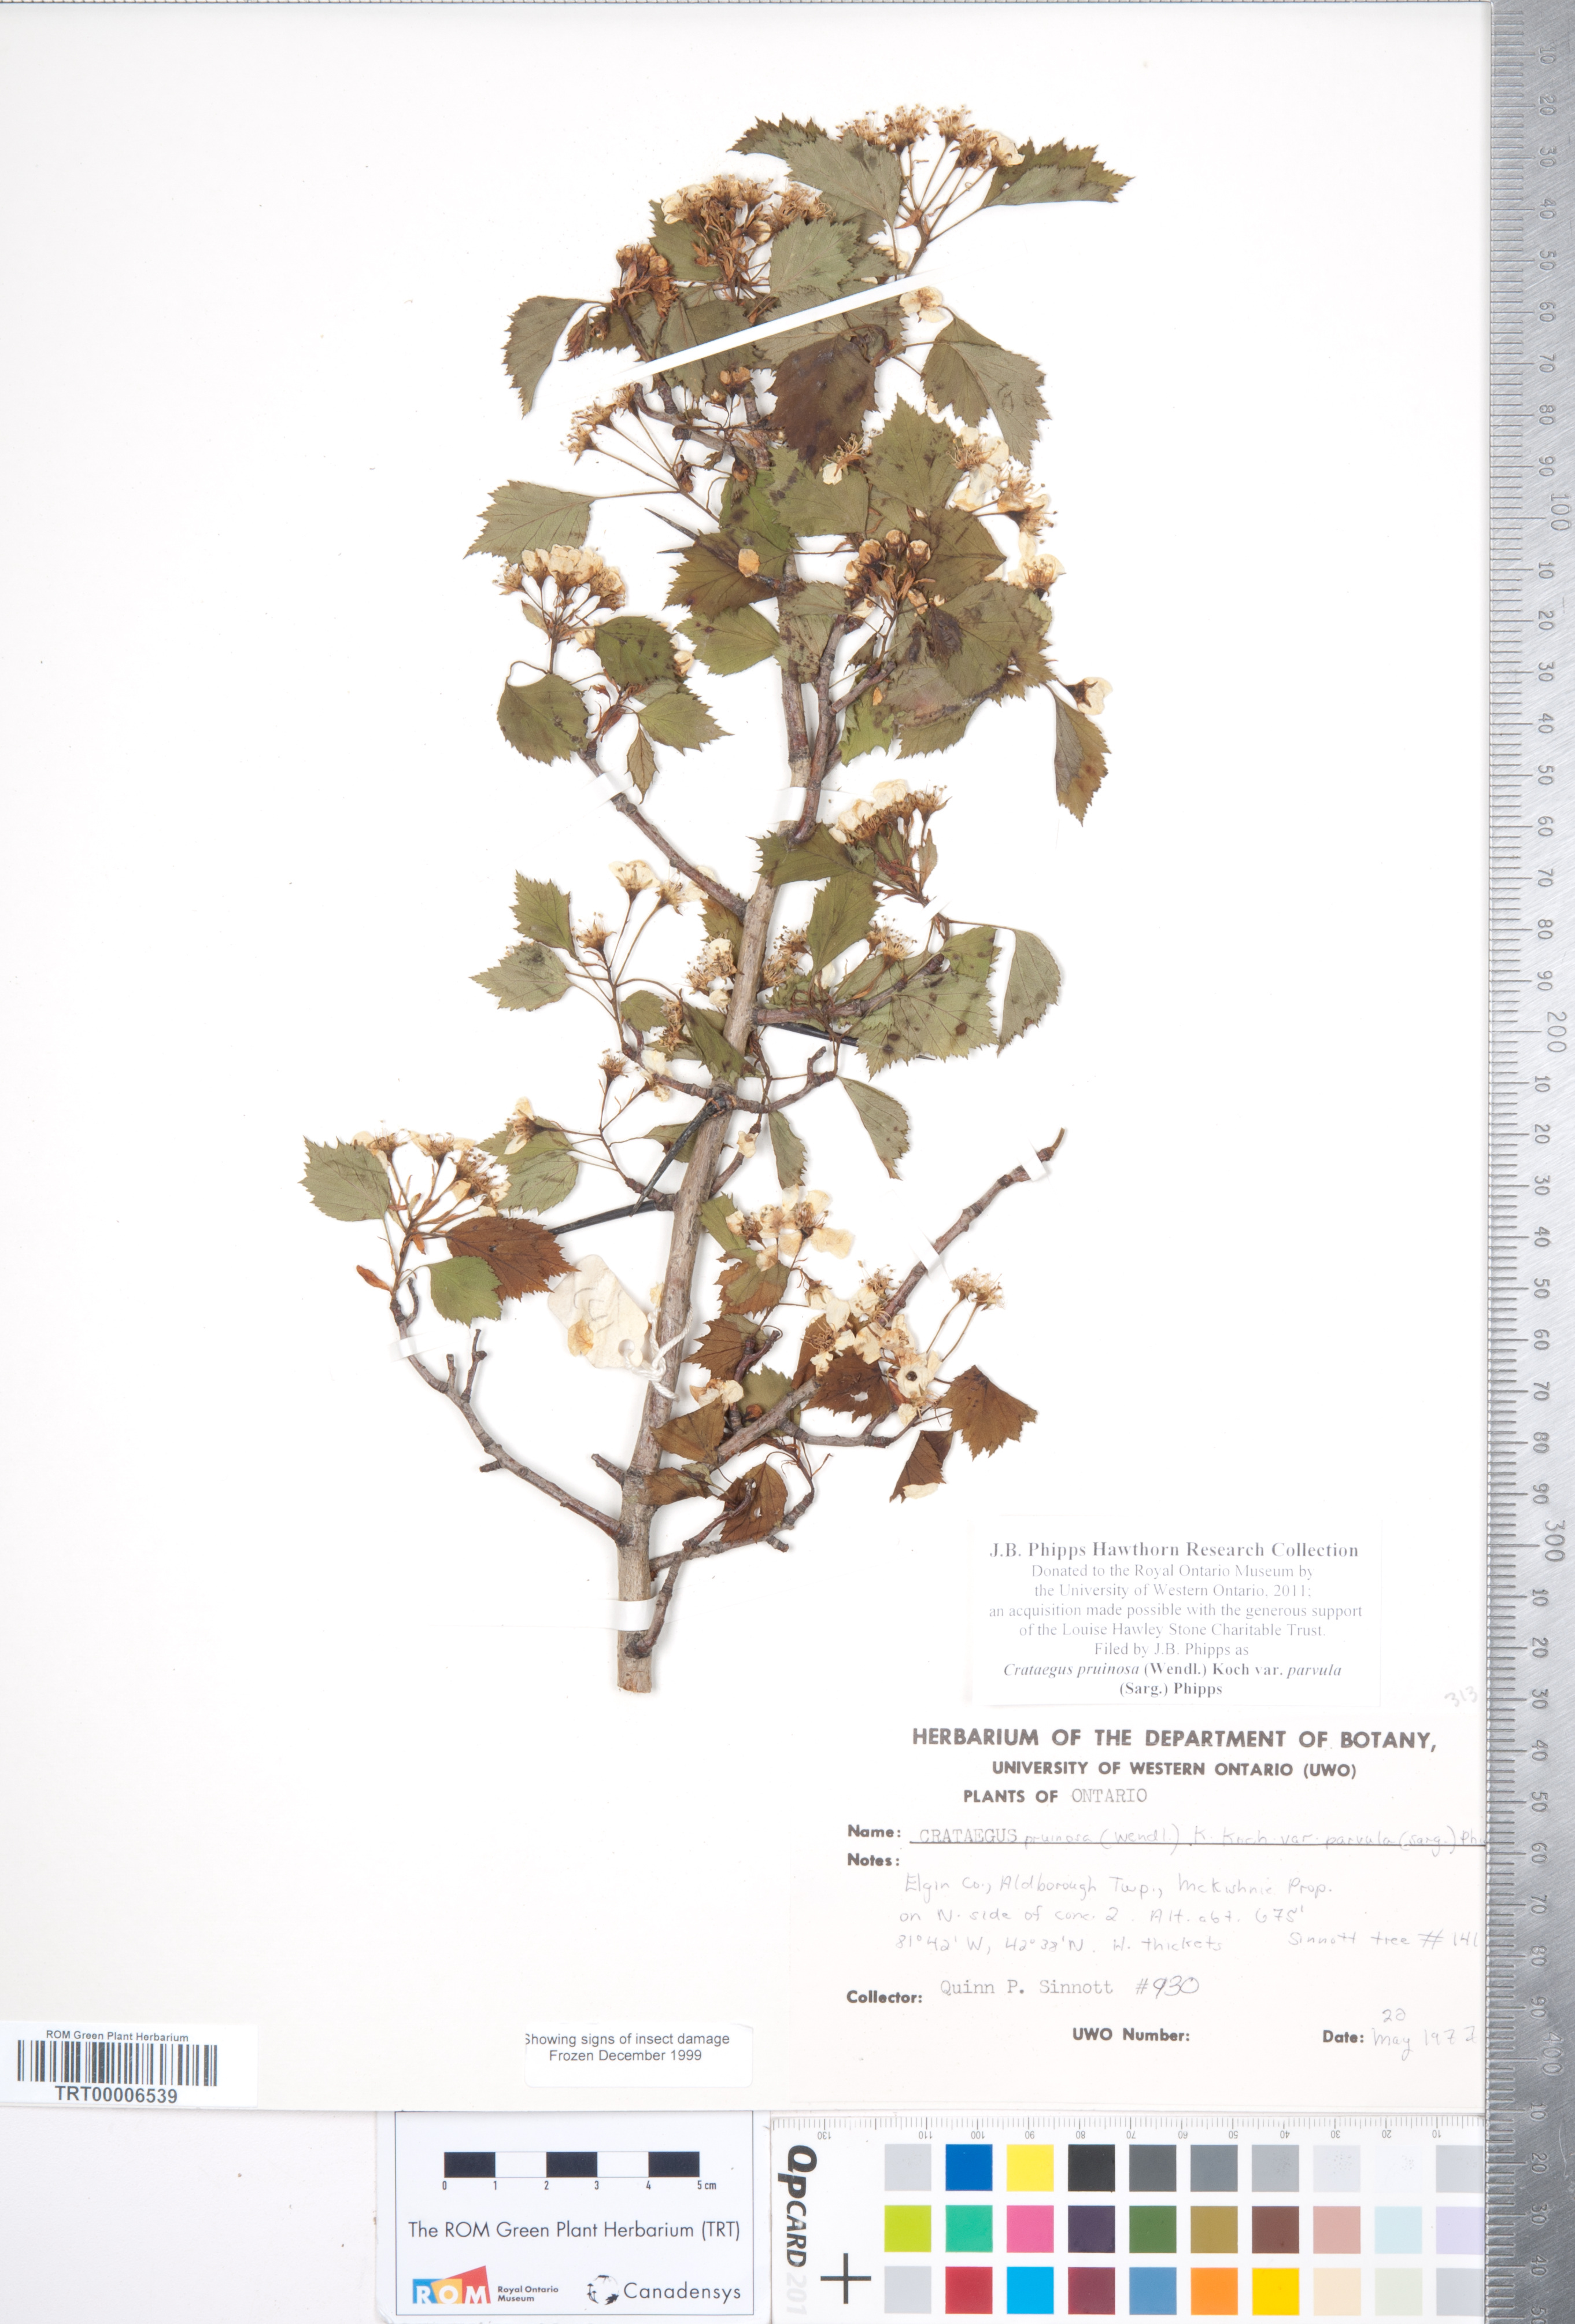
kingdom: Plantae
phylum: Tracheophyta
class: Magnoliopsida
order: Rosales
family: Rosaceae
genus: Crataegus
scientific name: Crataegus pruinosa
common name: Waxy-fruit hawthorn
